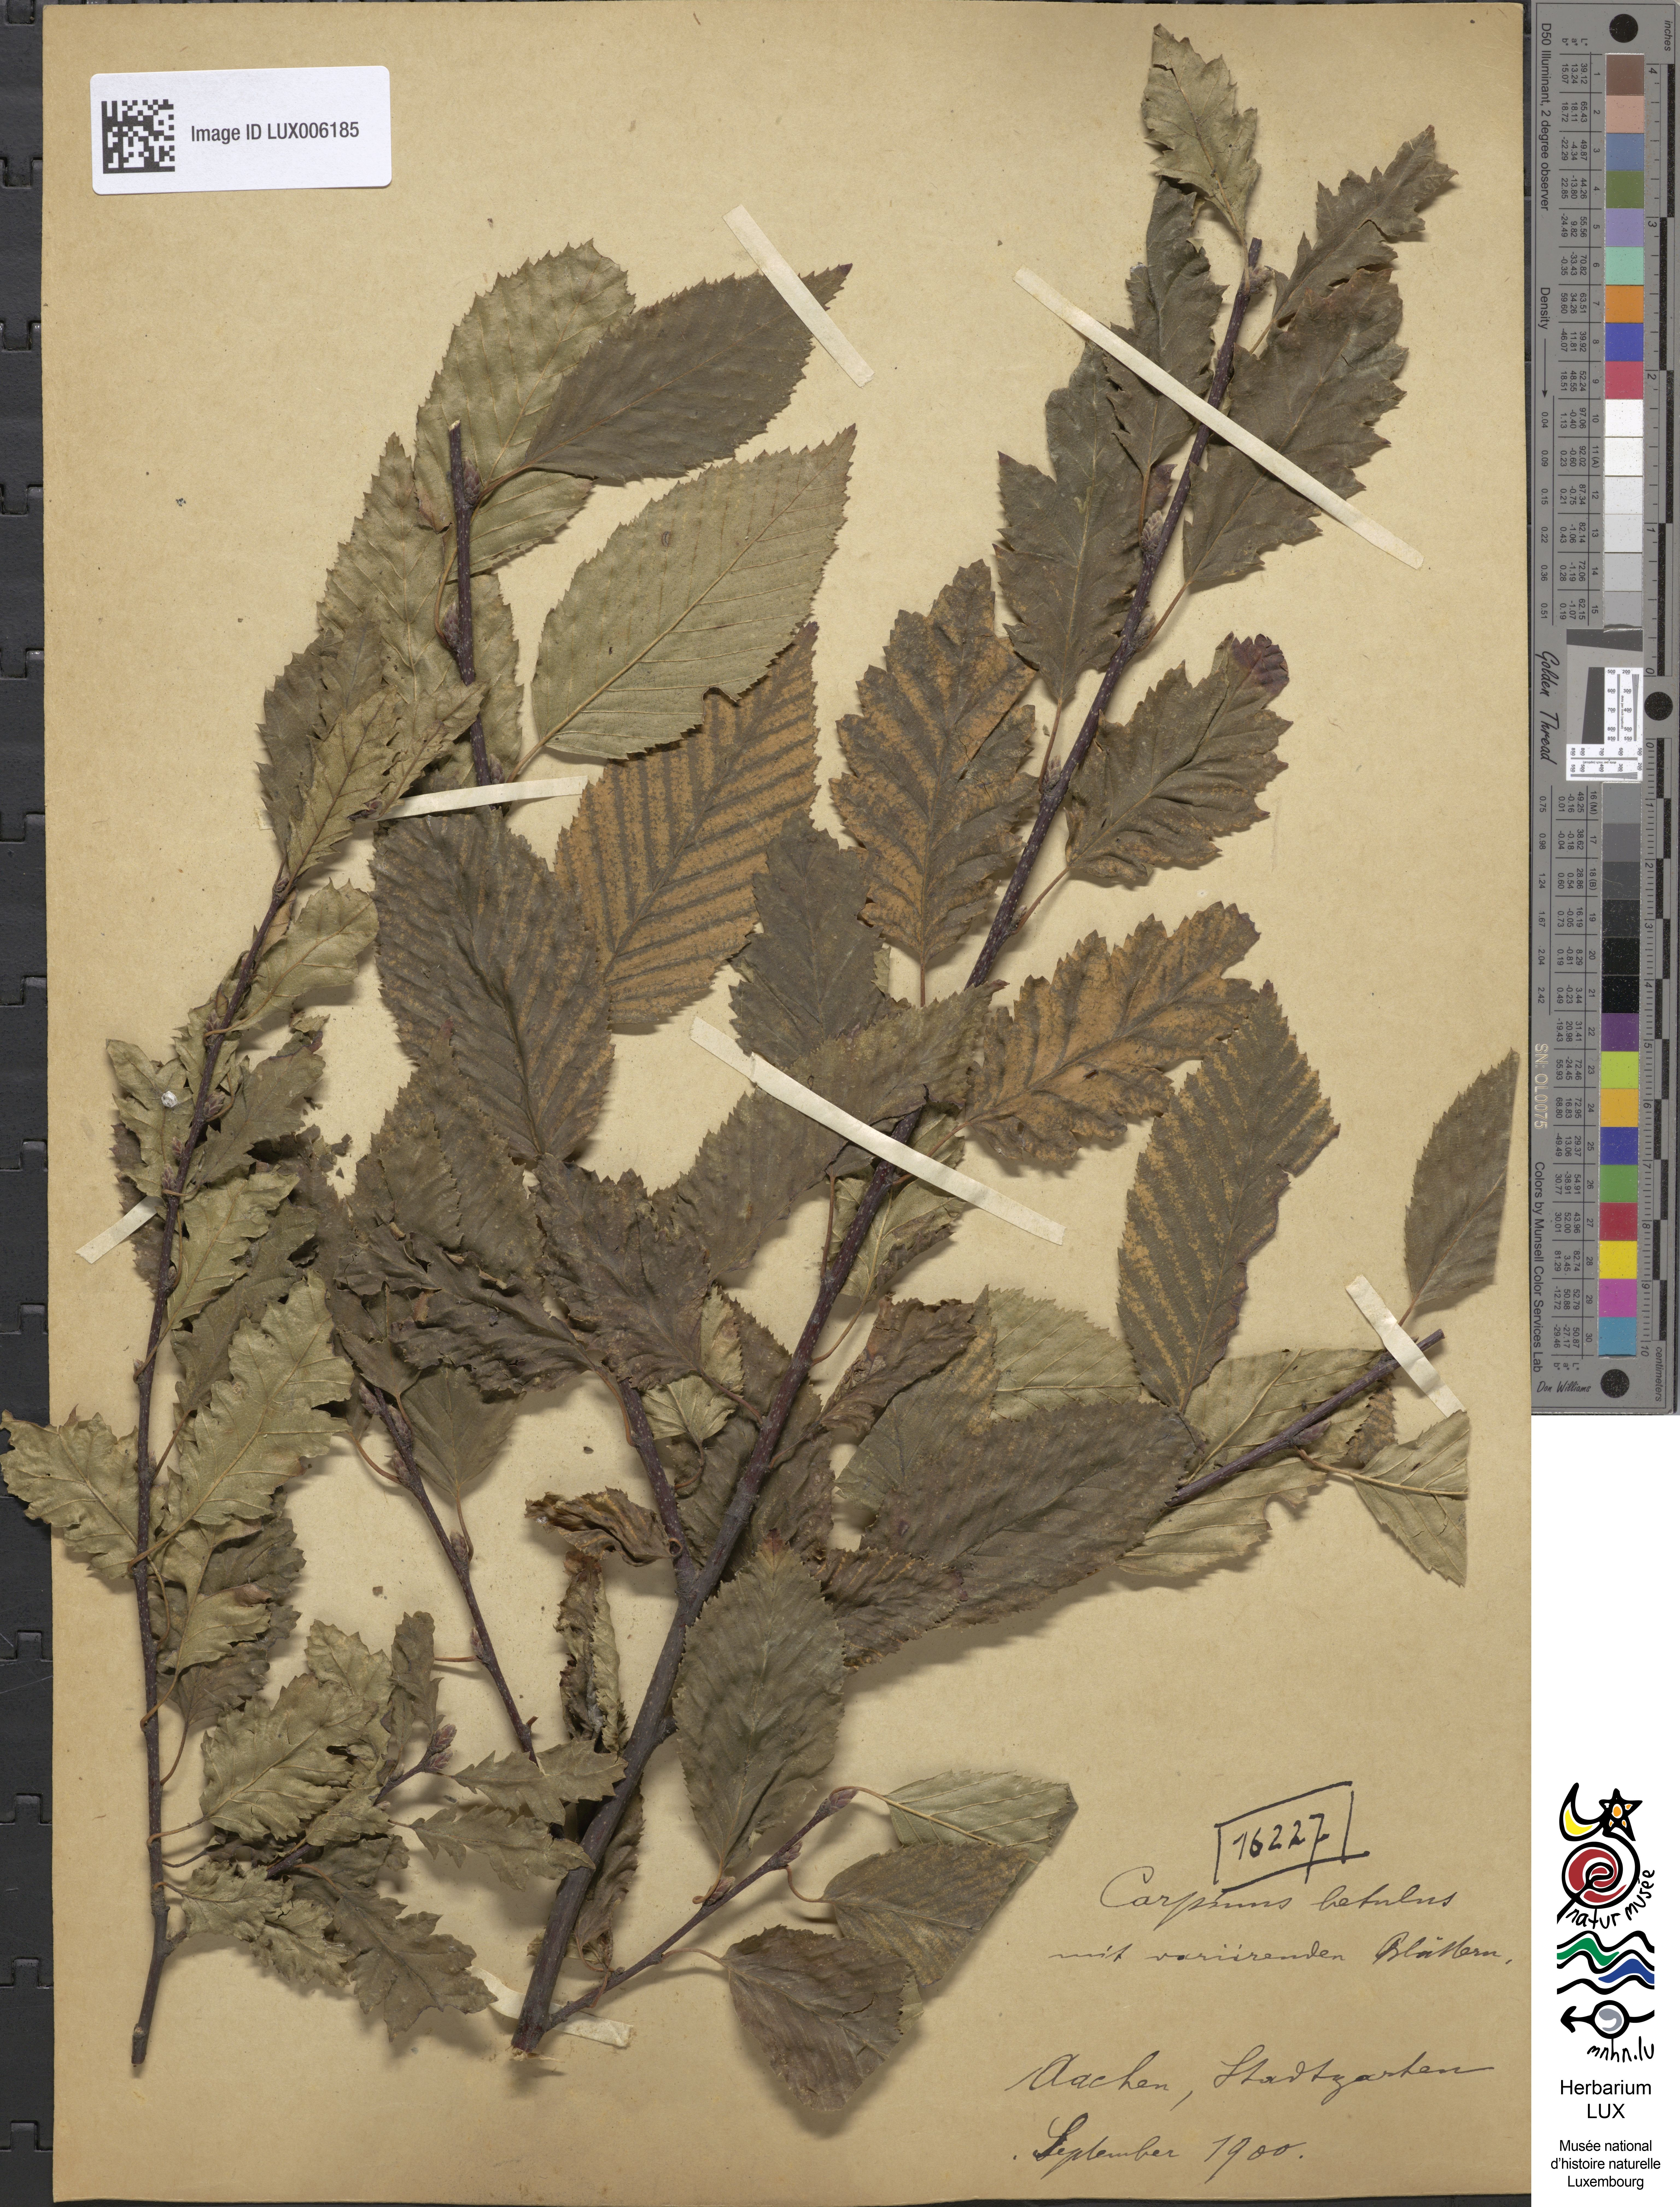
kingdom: Plantae
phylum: Tracheophyta
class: Magnoliopsida
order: Fagales
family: Betulaceae
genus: Carpinus
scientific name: Carpinus betulus
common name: Hornbeam
